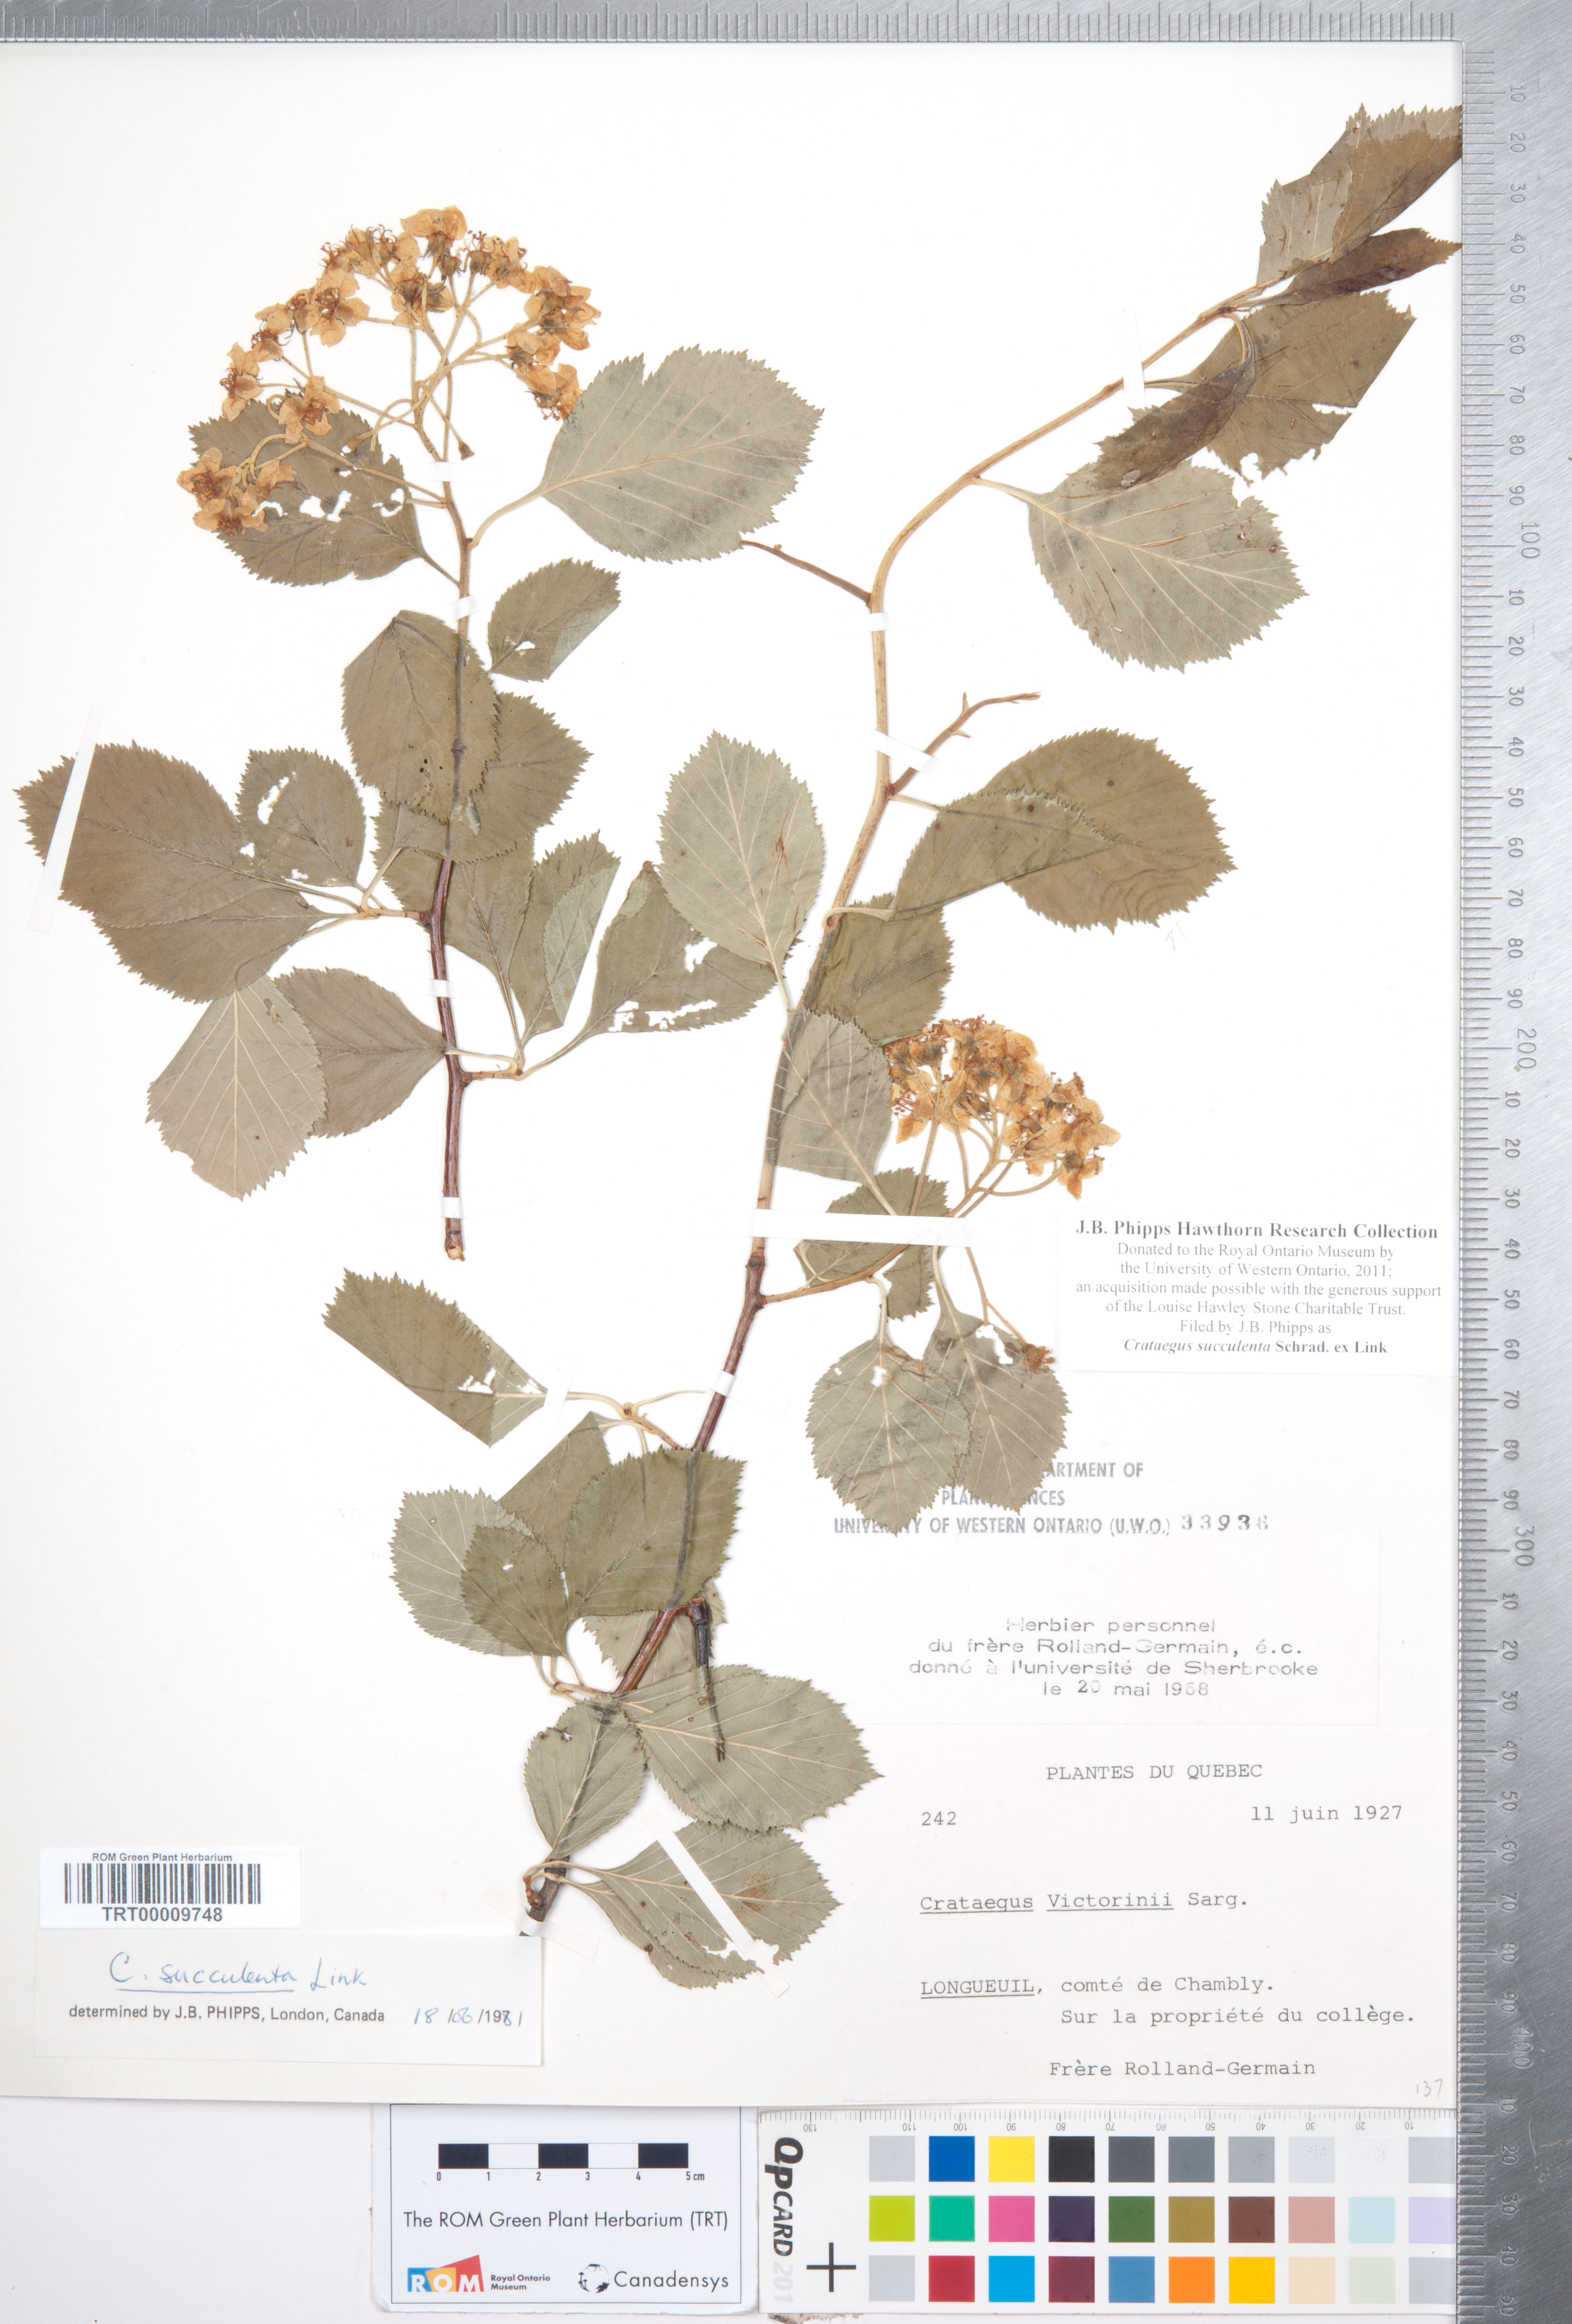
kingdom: Plantae
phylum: Tracheophyta
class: Magnoliopsida
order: Rosales
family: Rosaceae
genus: Crataegus
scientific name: Crataegus succulenta
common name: Fleshy hawthorn
